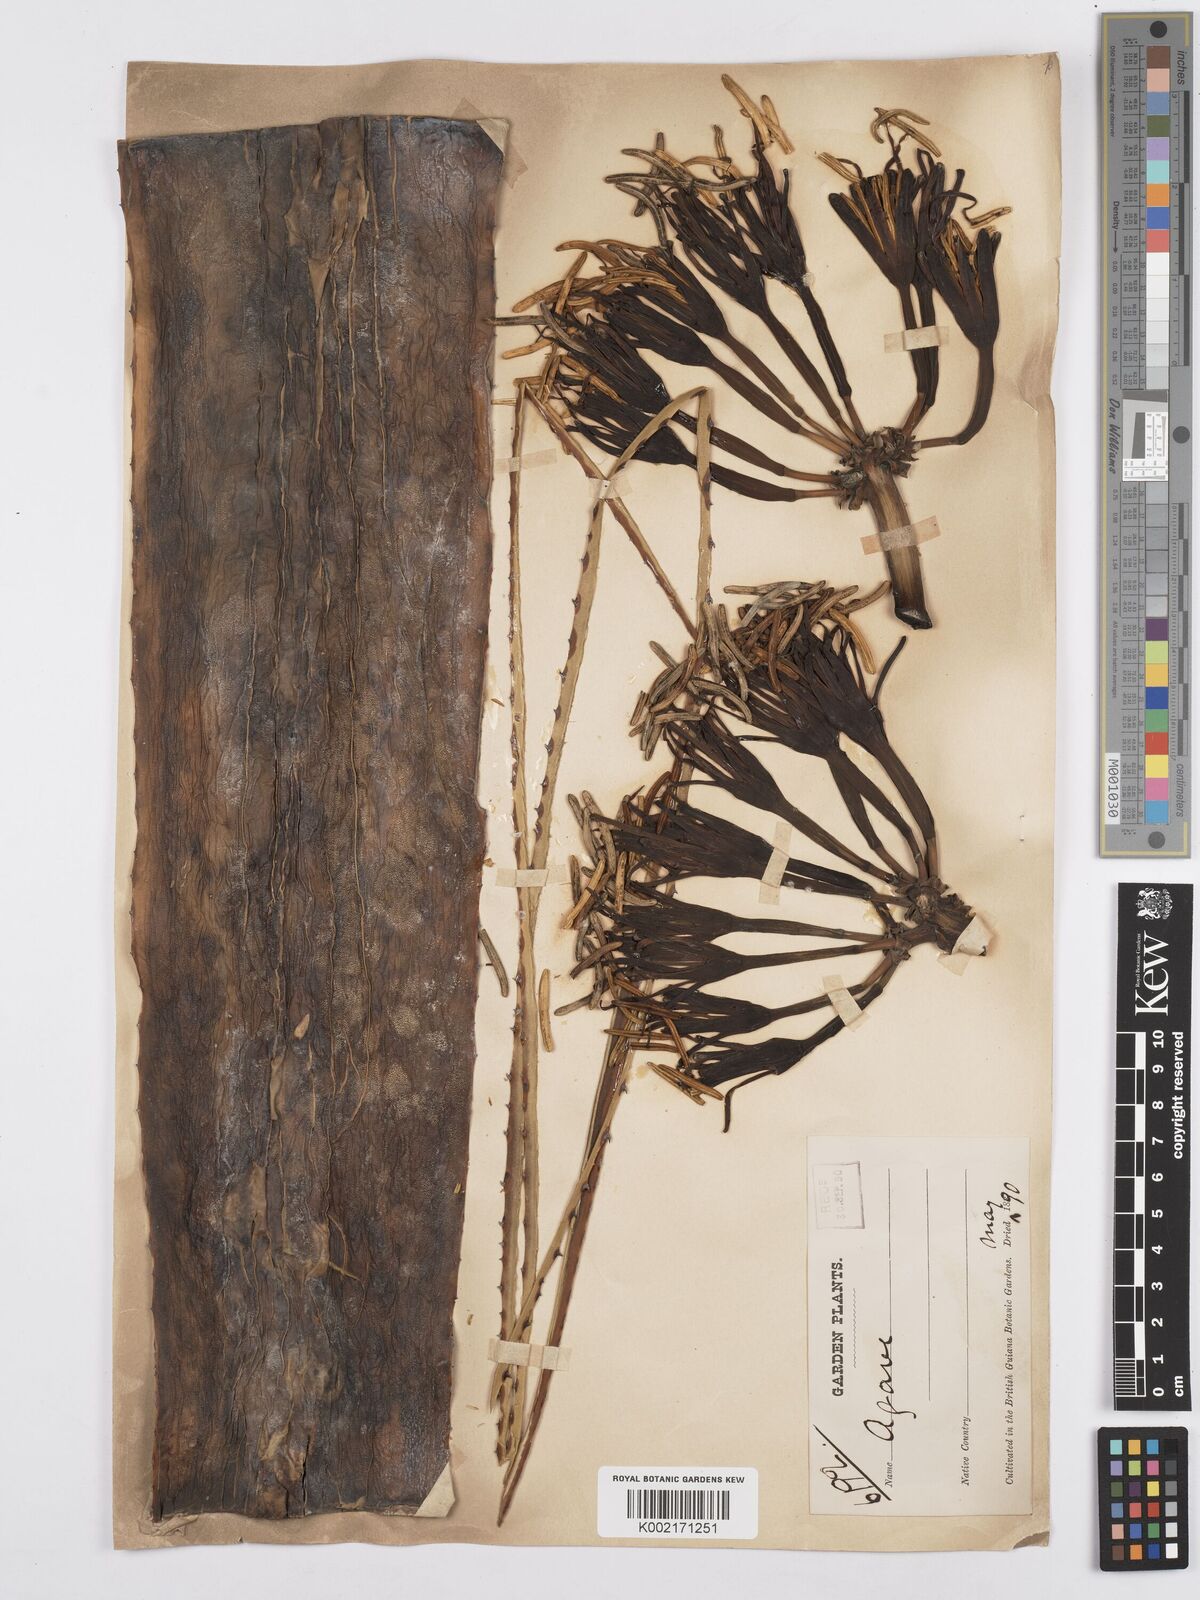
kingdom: Plantae
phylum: Tracheophyta
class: Liliopsida
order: Asparagales
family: Asparagaceae
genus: Agave
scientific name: Agave
